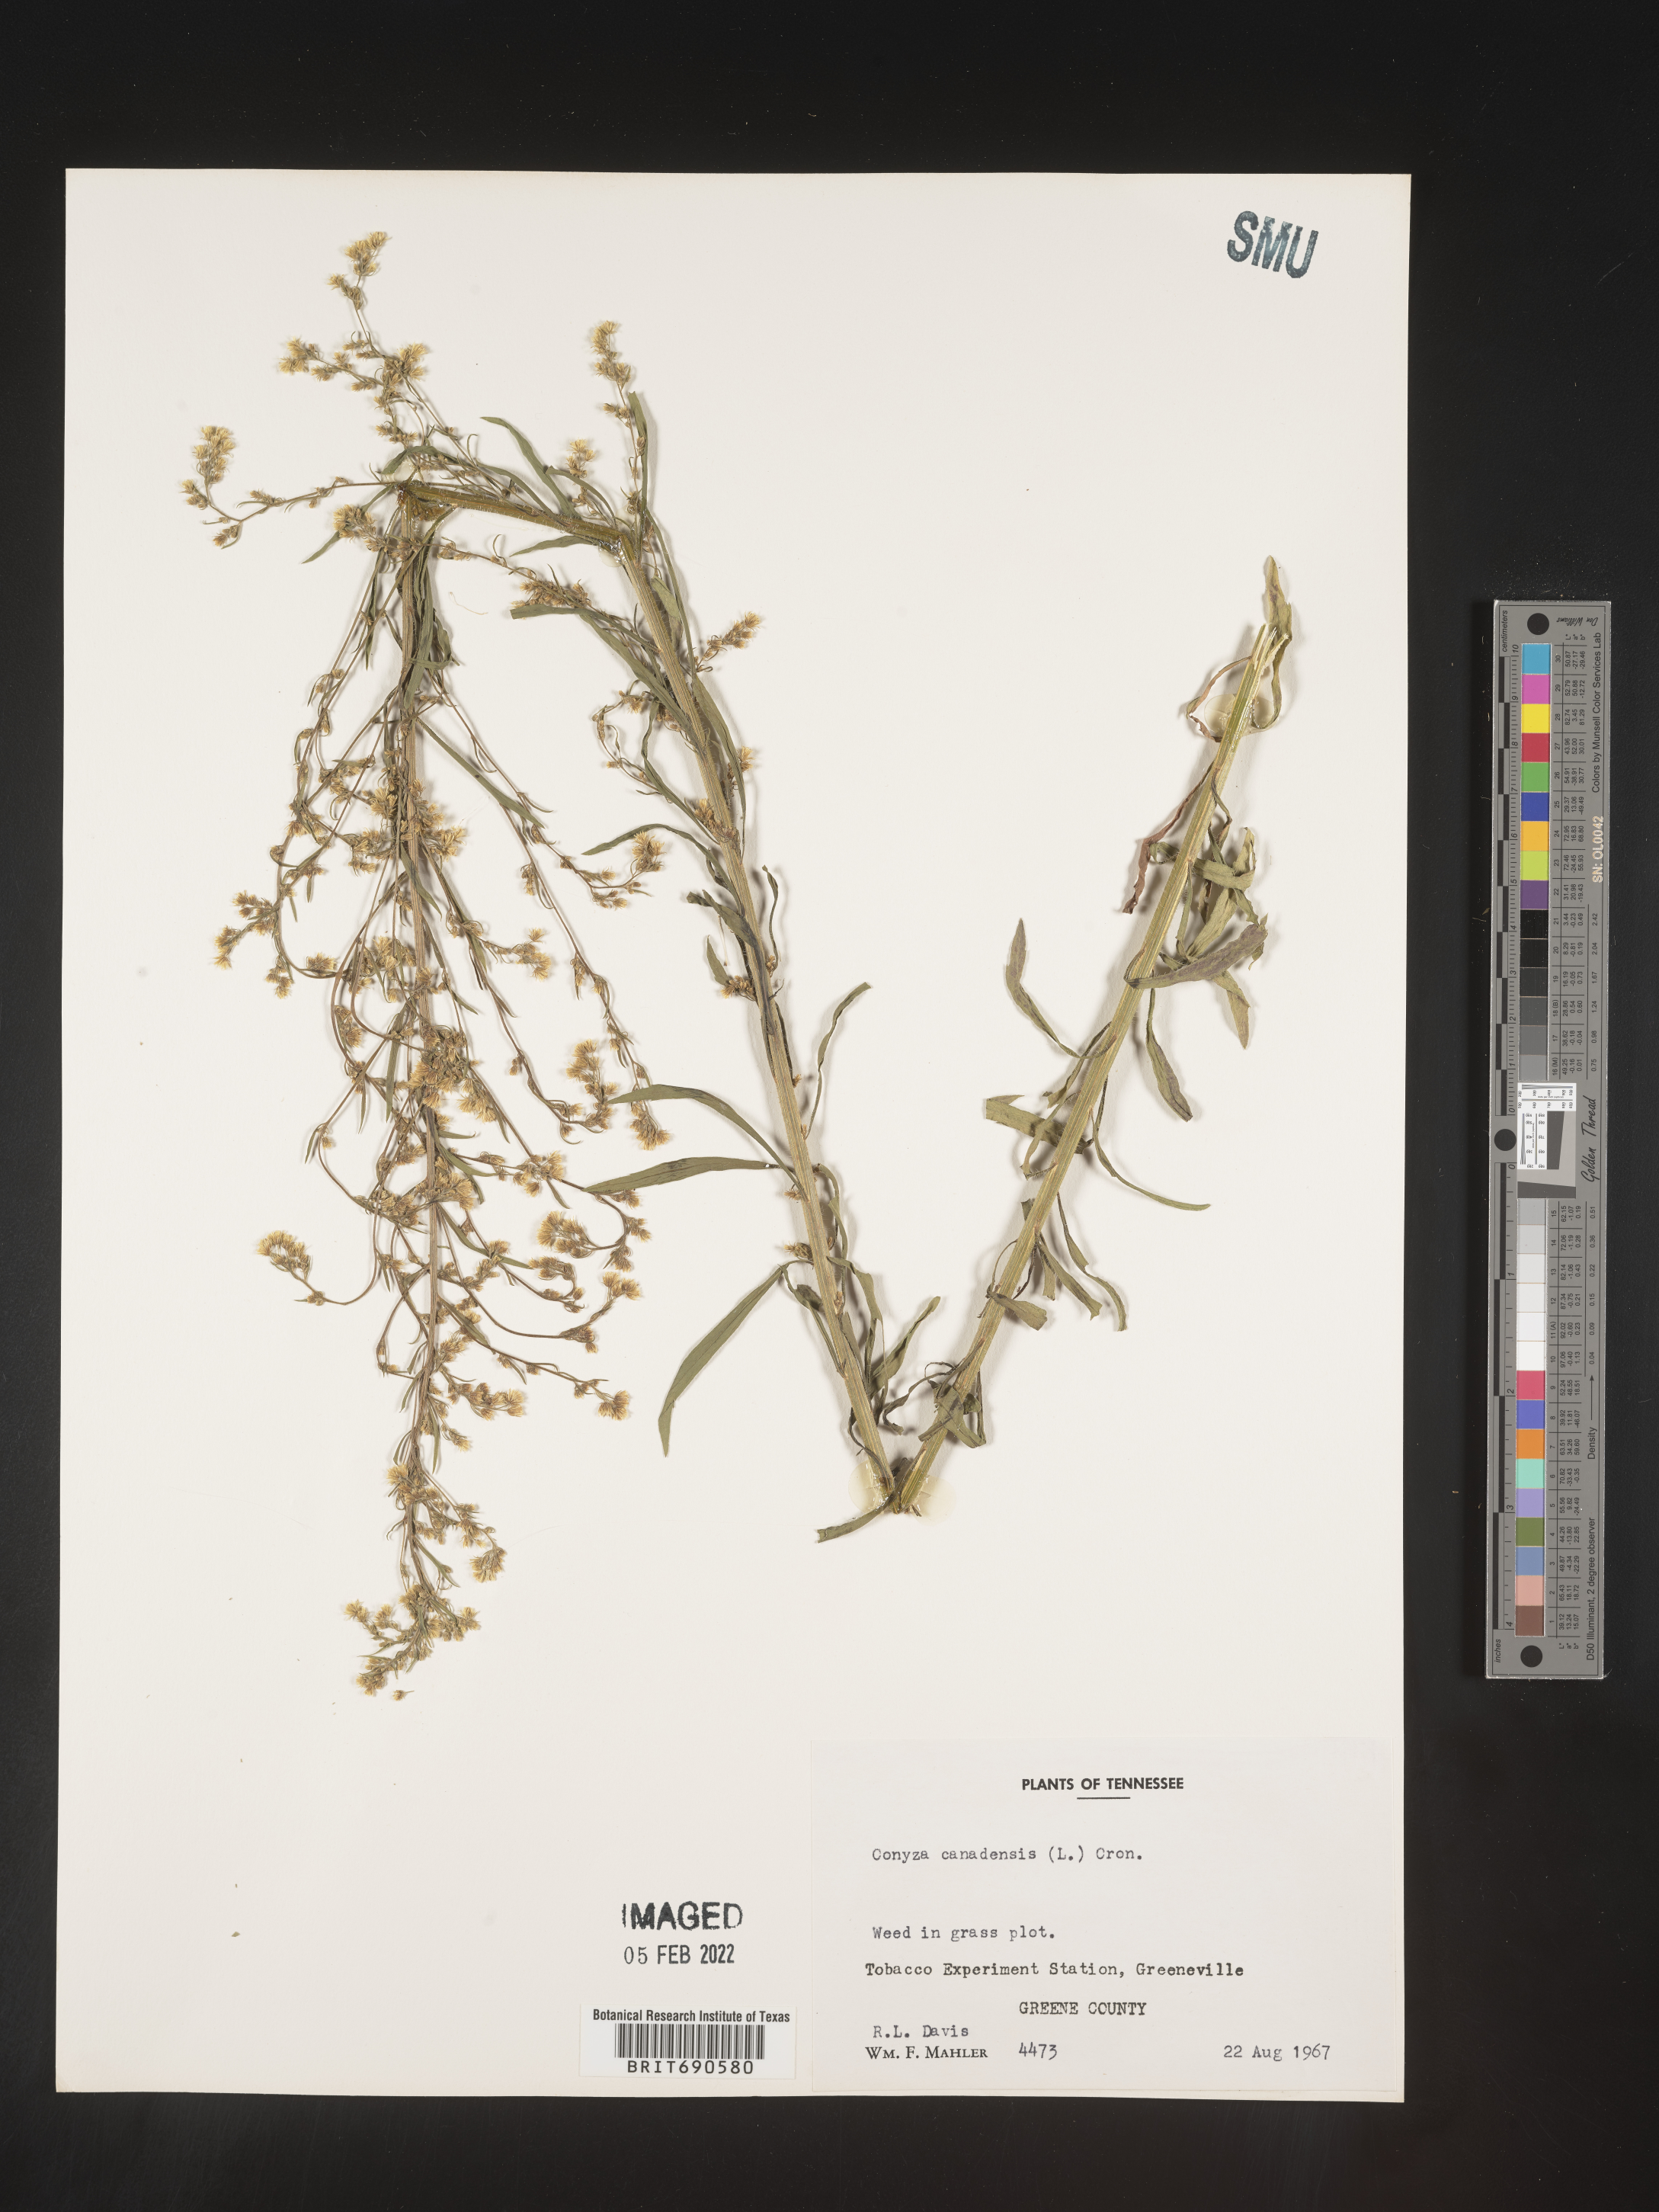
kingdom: Plantae
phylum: Tracheophyta
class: Magnoliopsida
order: Asterales
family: Asteraceae
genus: Erigeron
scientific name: Erigeron canadensis
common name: Canadian fleabane
